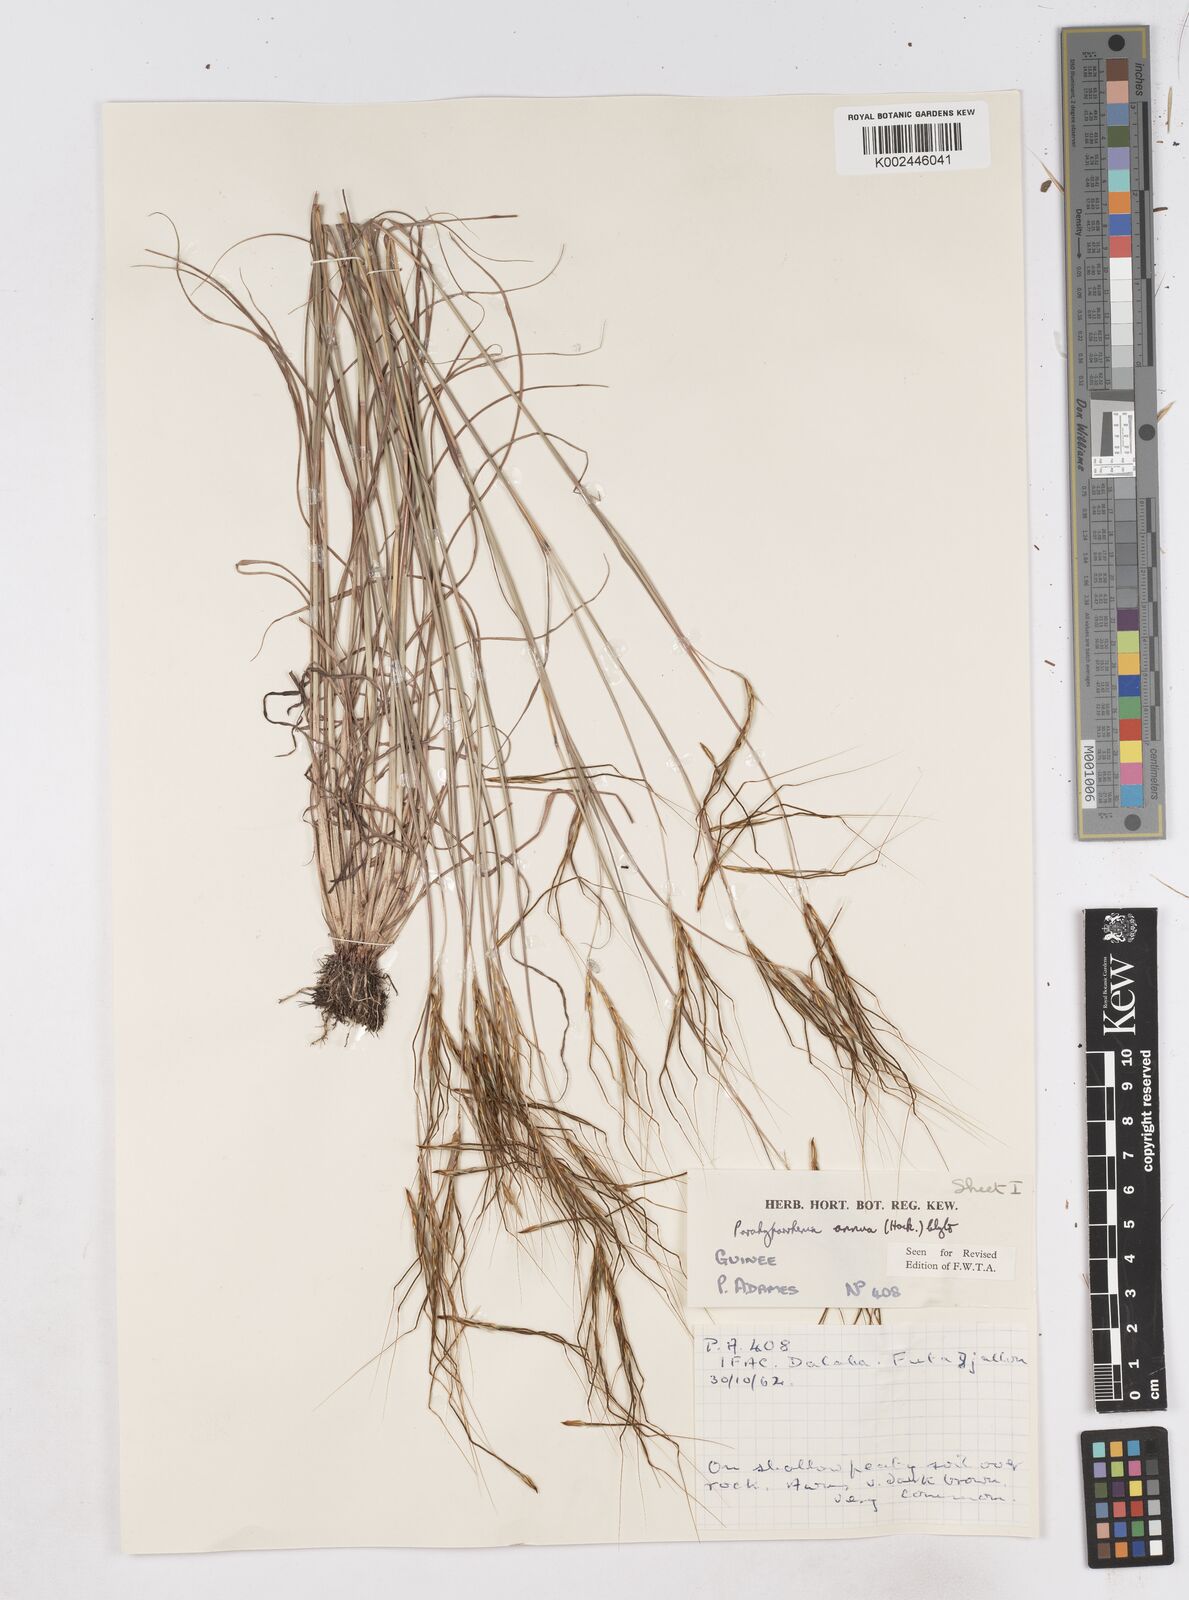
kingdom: Plantae
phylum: Tracheophyta
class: Liliopsida
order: Poales
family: Poaceae
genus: Parahyparrhenia
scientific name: Parahyparrhenia annua
